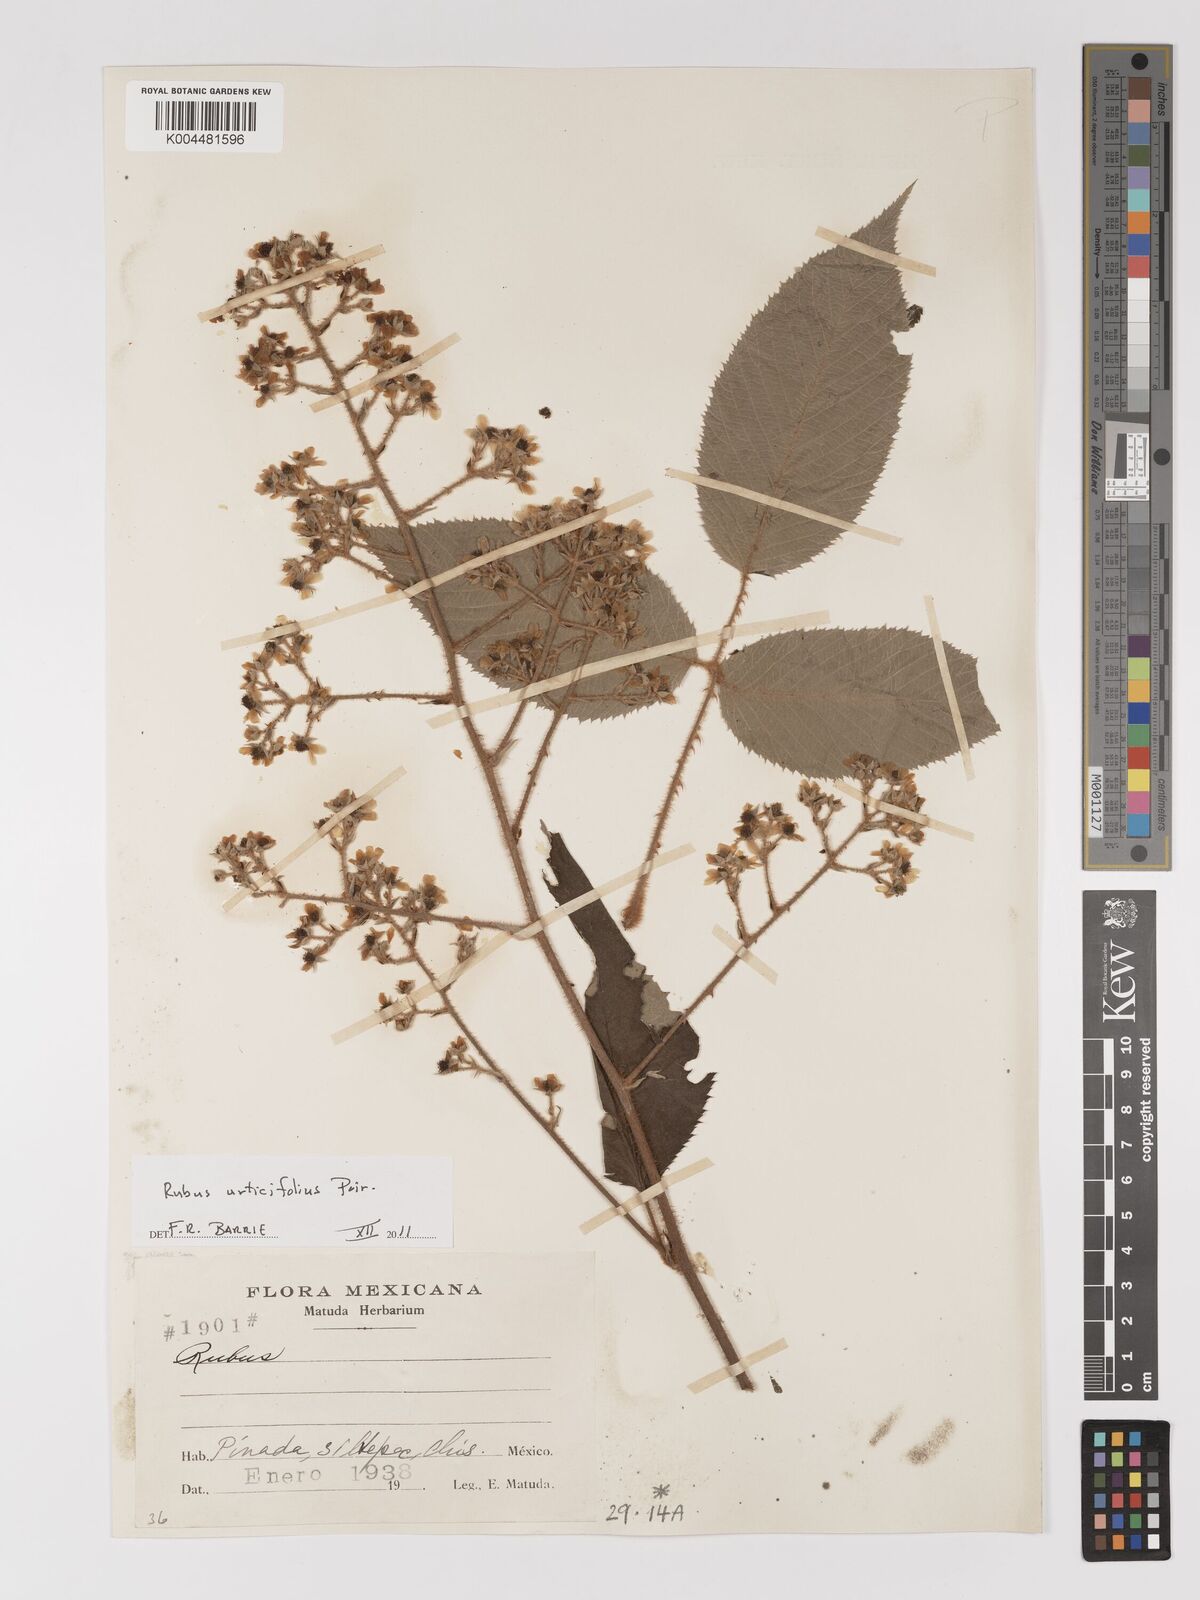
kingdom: Plantae
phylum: Tracheophyta
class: Magnoliopsida
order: Rosales
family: Rosaceae
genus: Rubus
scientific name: Rubus urticifolius
